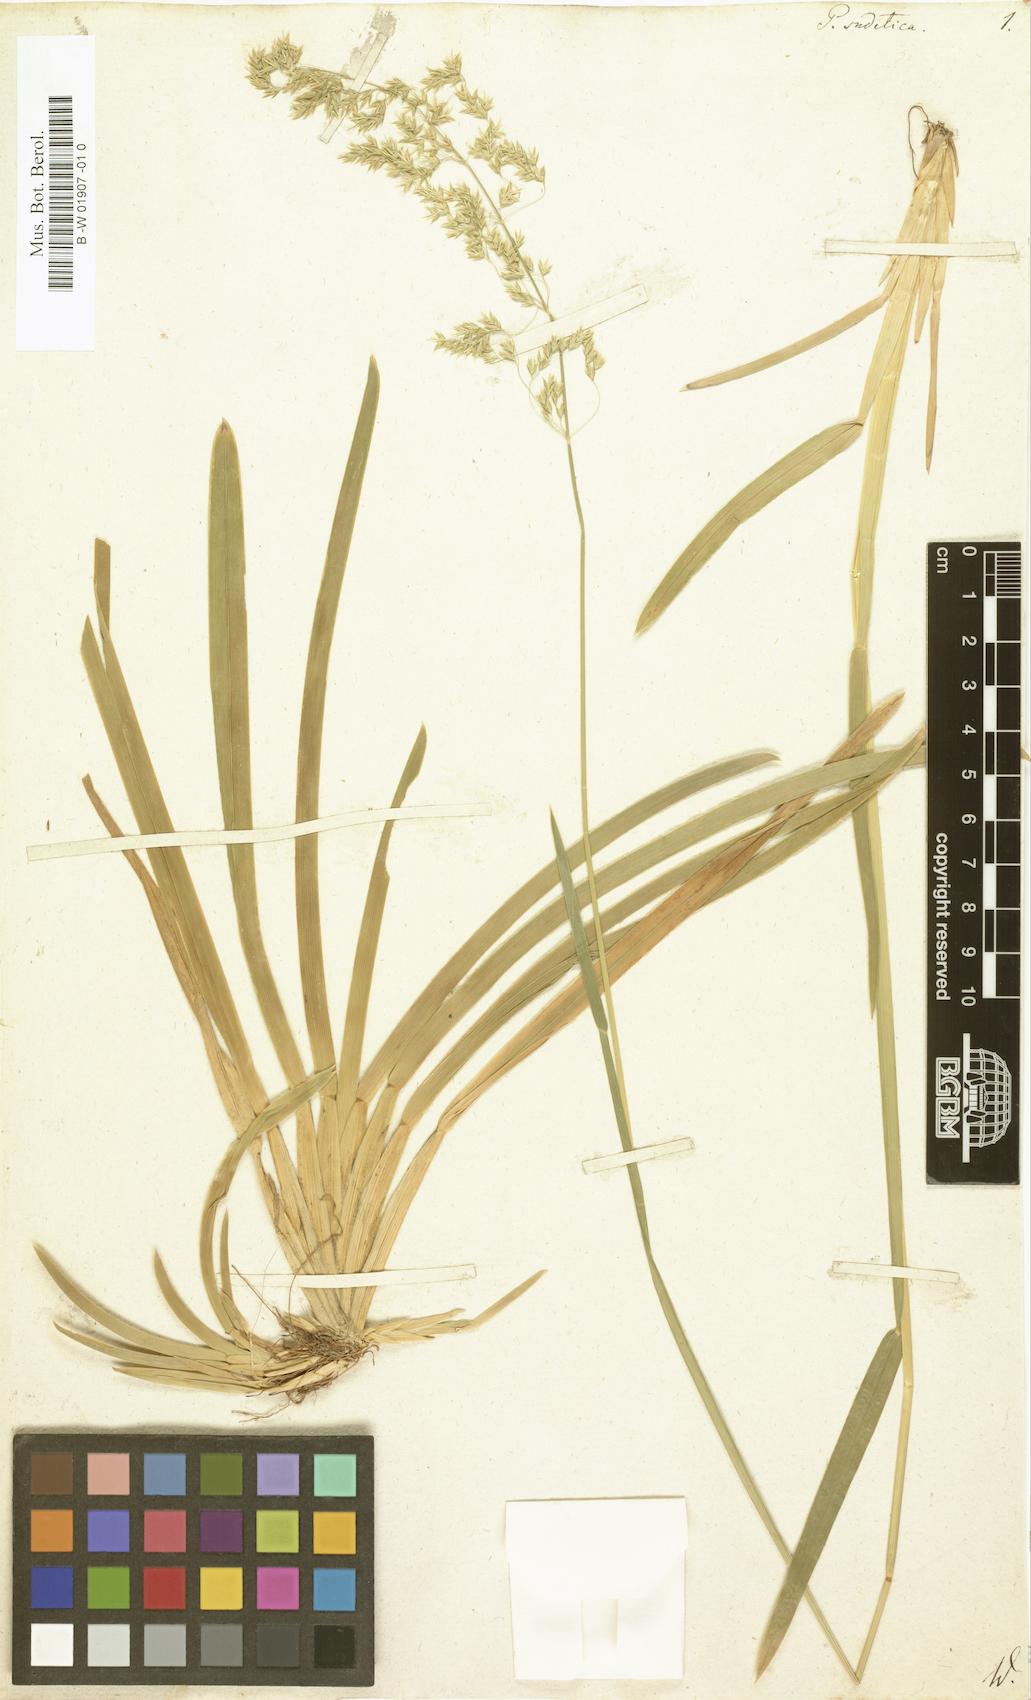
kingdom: Plantae
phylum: Tracheophyta
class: Liliopsida
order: Poales
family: Poaceae
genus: Poa
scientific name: Poa sudetica
